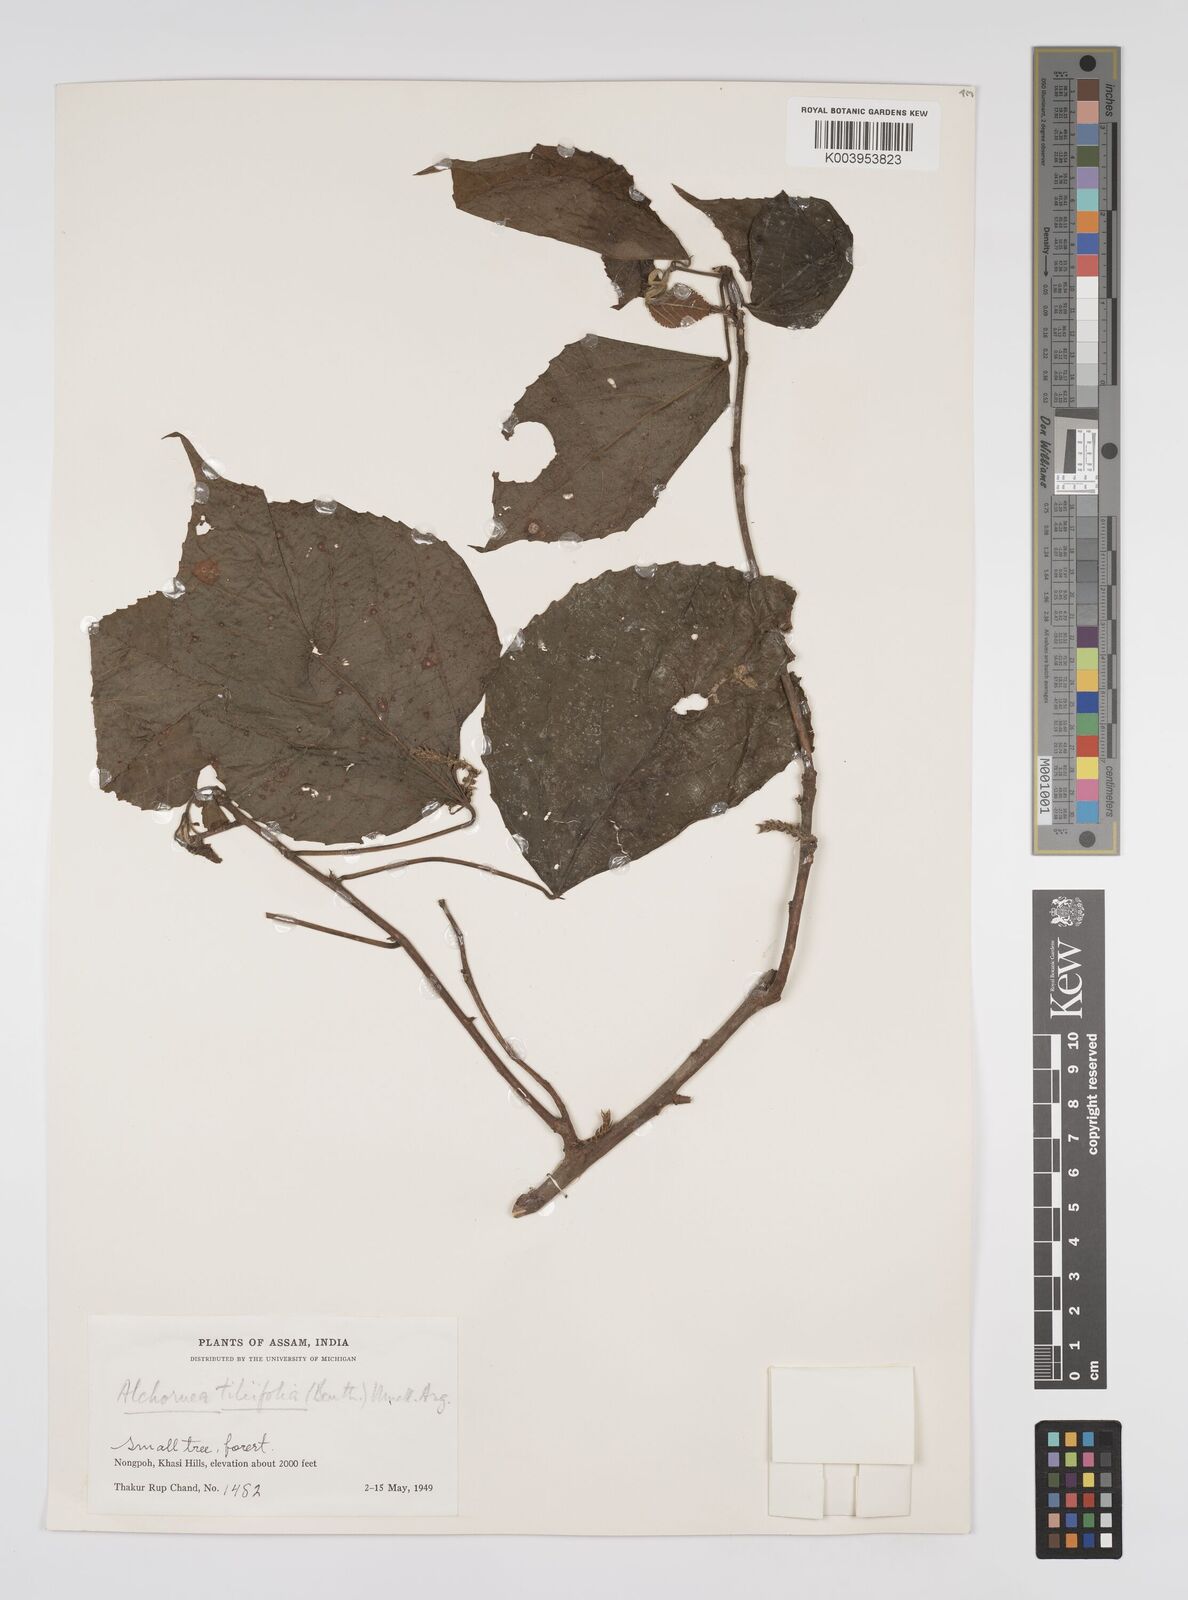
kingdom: Plantae
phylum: Tracheophyta
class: Magnoliopsida
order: Malpighiales
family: Euphorbiaceae
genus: Alchornea
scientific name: Alchornea tiliifolia
